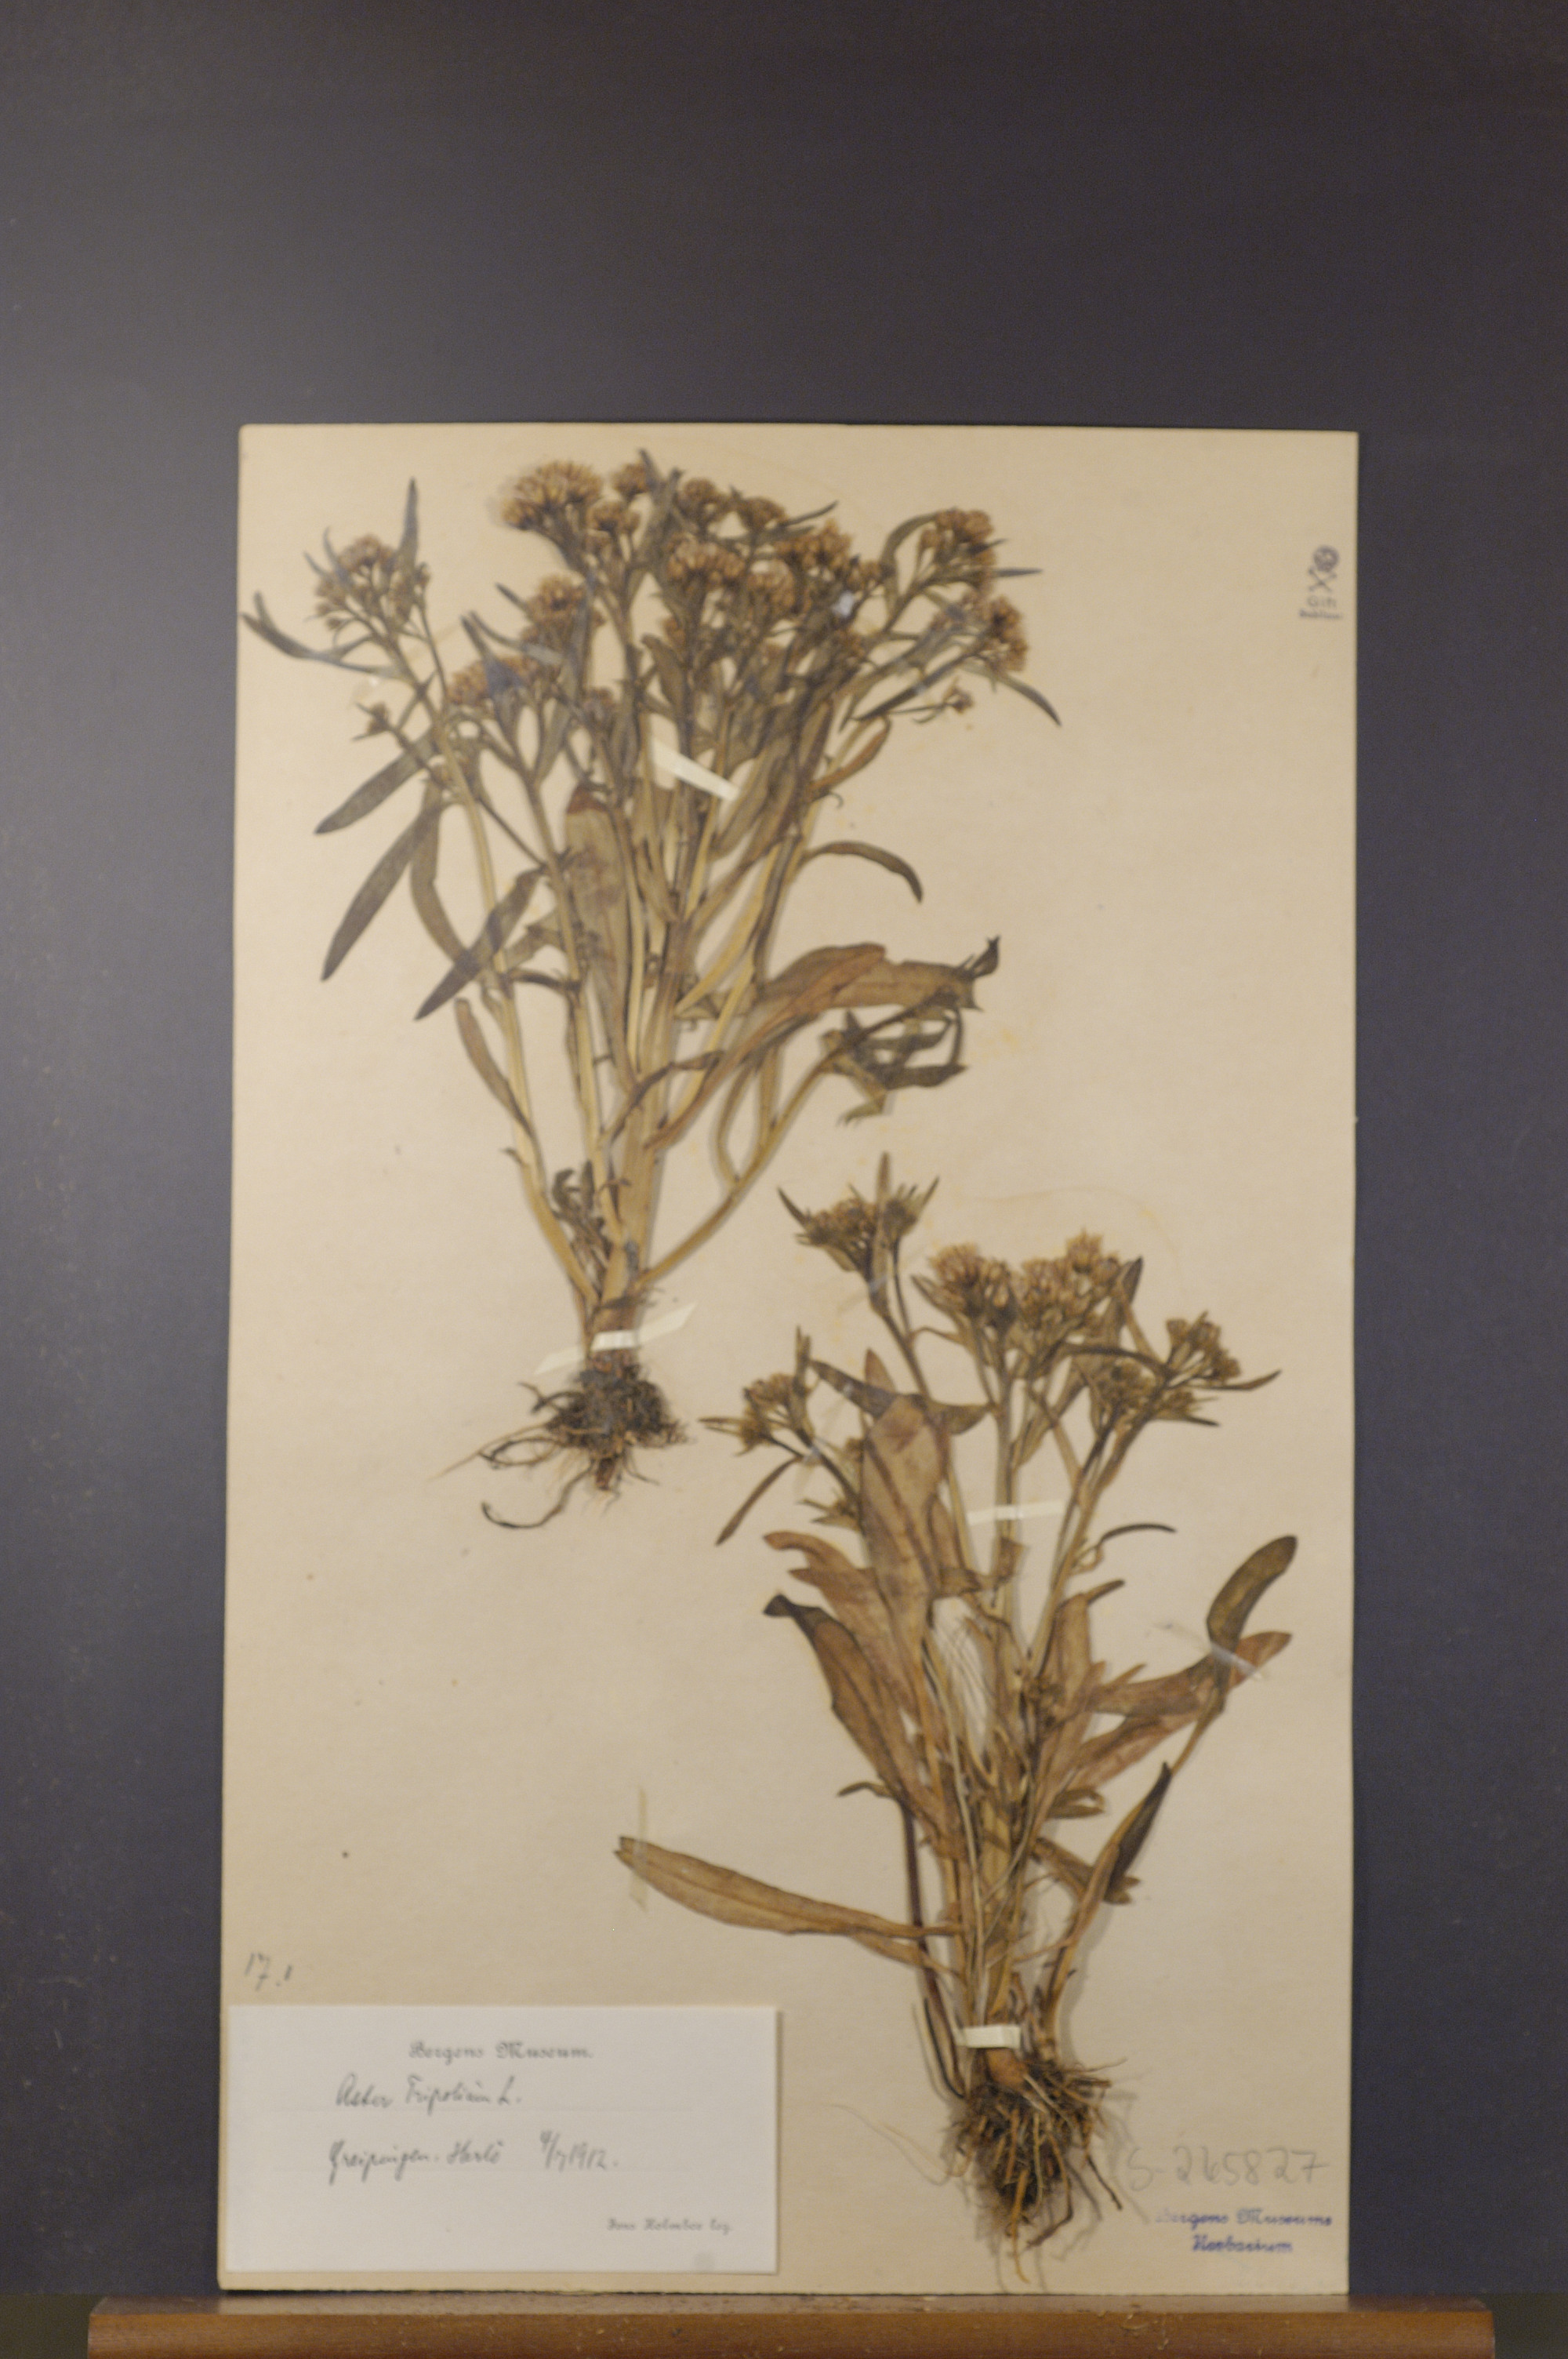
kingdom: Plantae
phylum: Tracheophyta
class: Magnoliopsida
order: Asterales
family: Asteraceae
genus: Tripolium
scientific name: Tripolium pannonicum
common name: Sea aster
